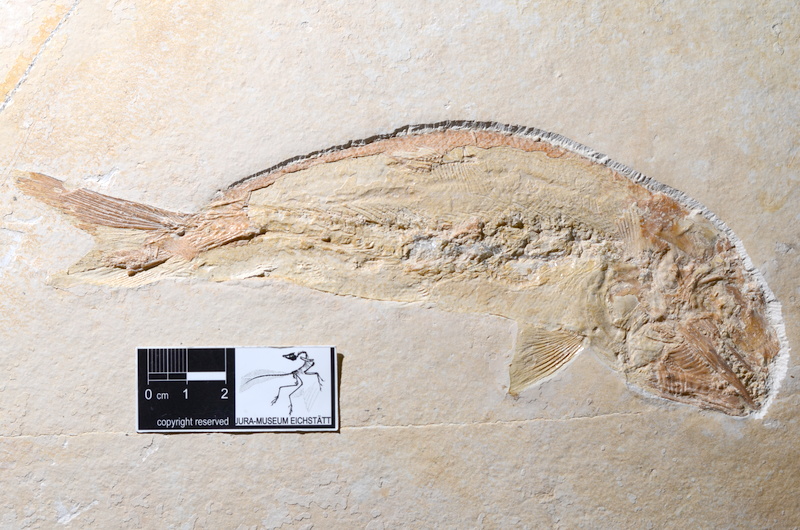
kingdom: Animalia
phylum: Chordata
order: Amiiformes
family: Caturidae
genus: Caturus
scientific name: Caturus furcatus
